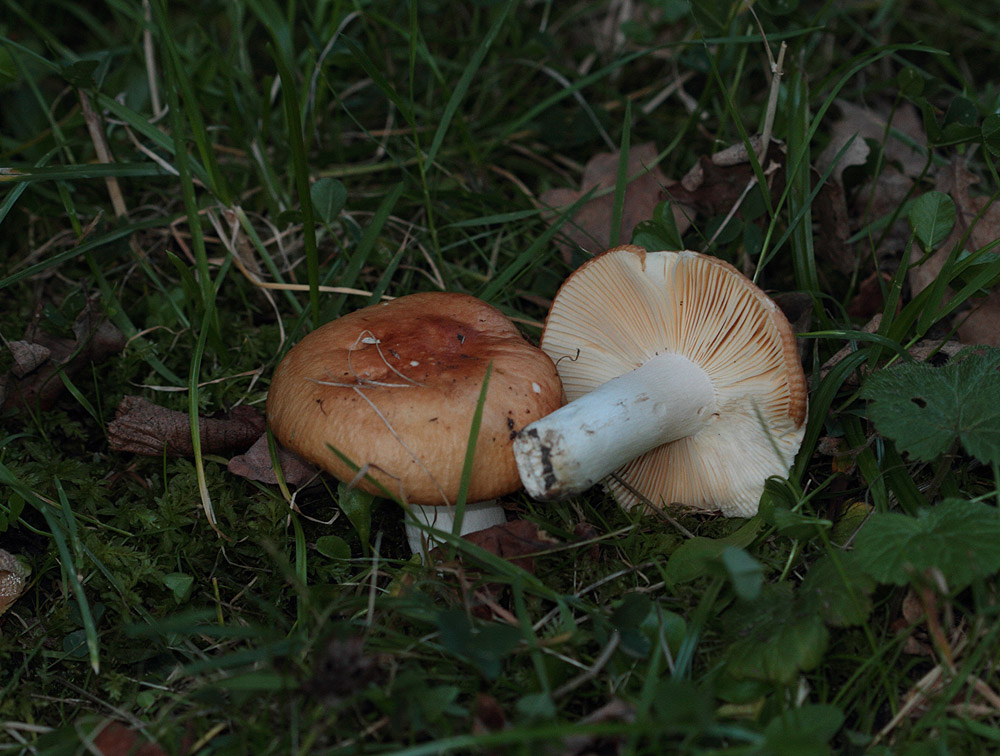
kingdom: Fungi
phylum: Basidiomycota
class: Agaricomycetes
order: Russulales
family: Russulaceae
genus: Russula
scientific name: Russula graveolens
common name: bugtet skørhat
